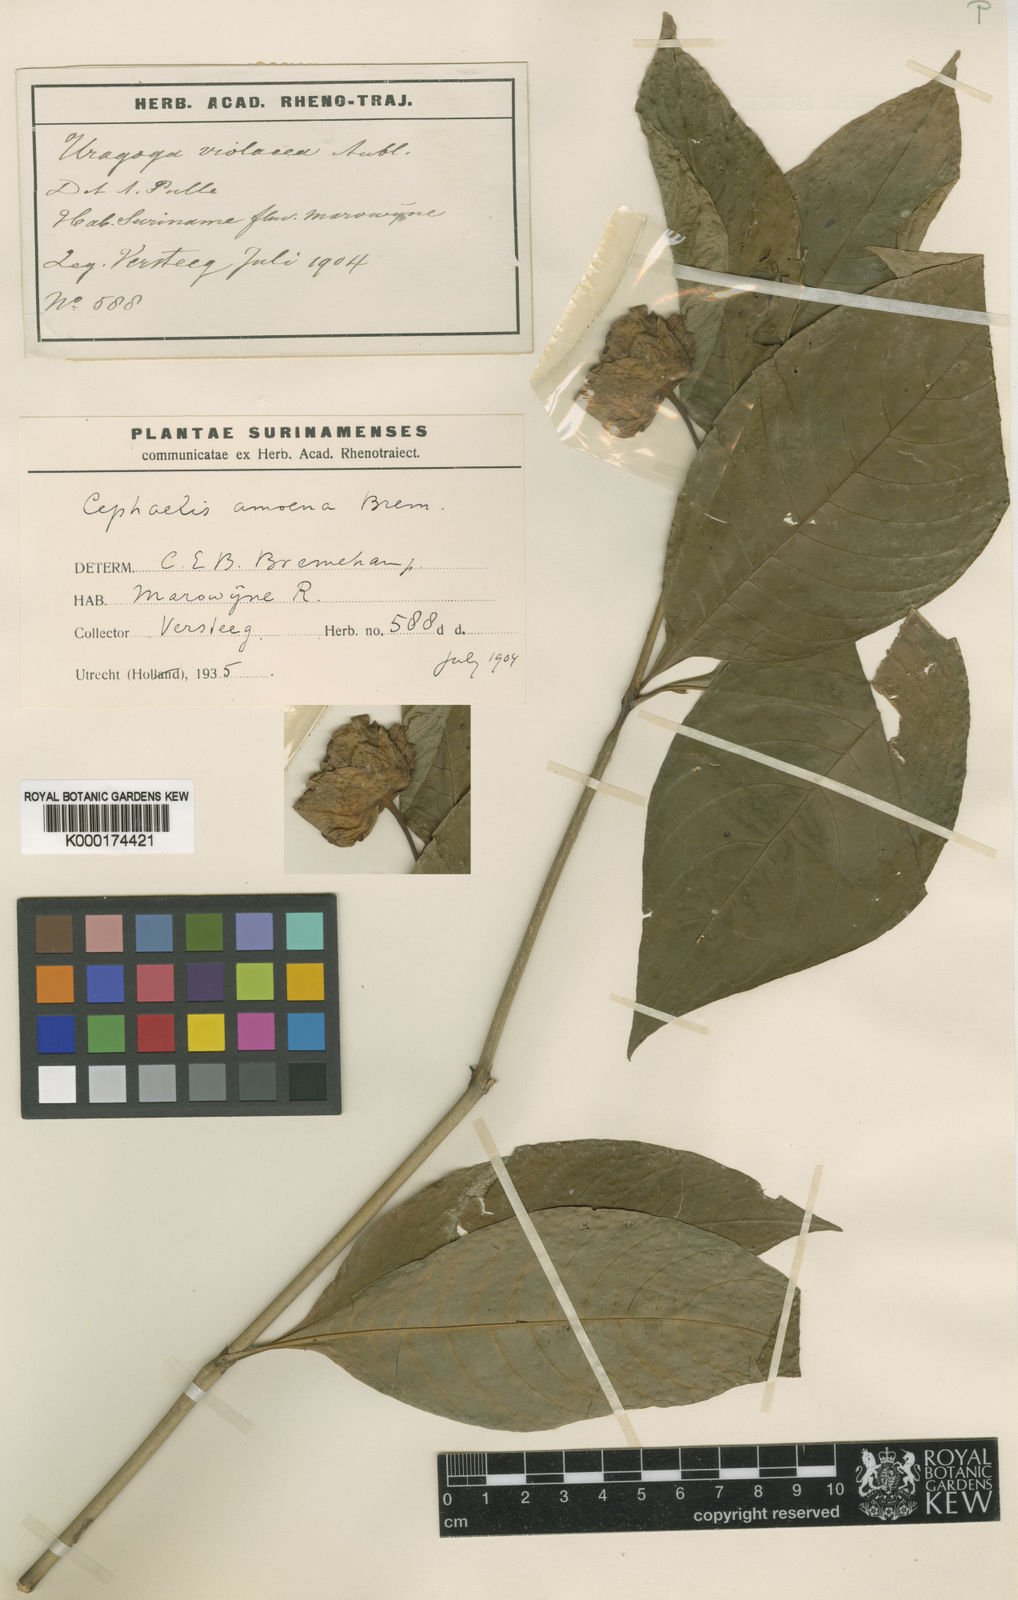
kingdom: Plantae
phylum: Tracheophyta
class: Magnoliopsida
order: Gentianales
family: Rubiaceae
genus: Psychotria
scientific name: Psychotria
